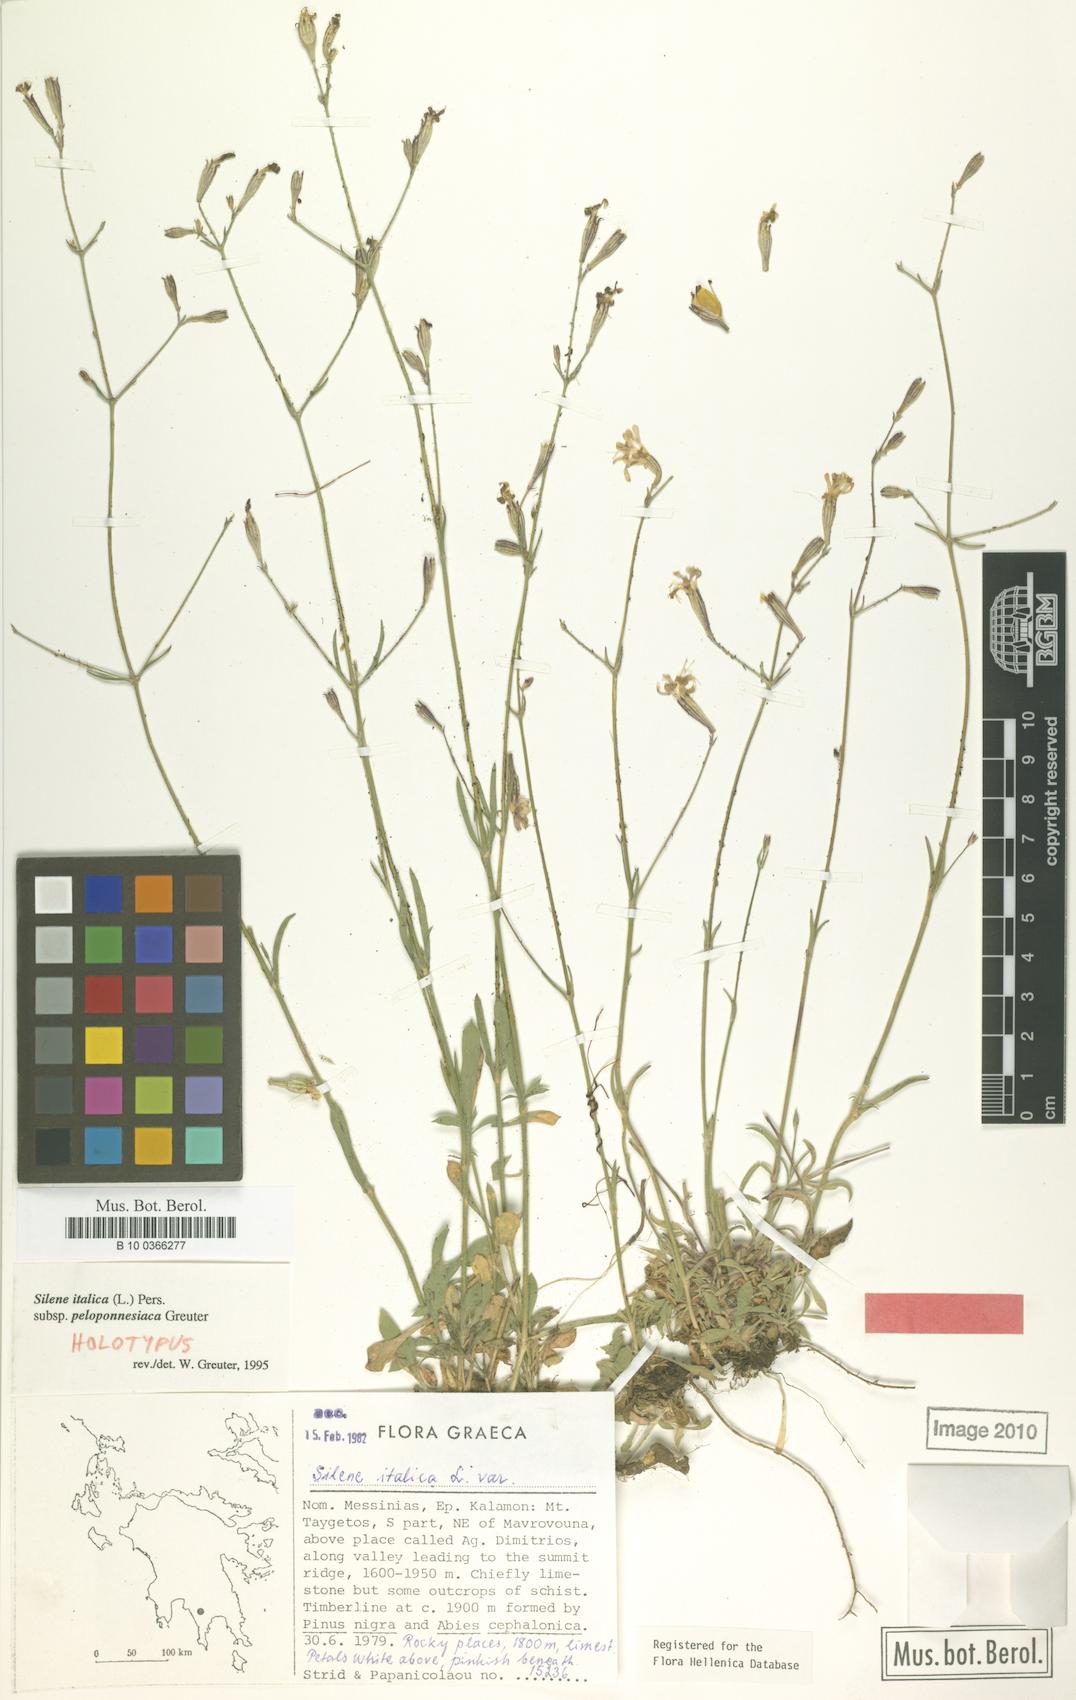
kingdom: Plantae
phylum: Tracheophyta
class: Magnoliopsida
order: Caryophyllales
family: Caryophyllaceae
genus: Silene
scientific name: Silene italica
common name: Italian catchfly
